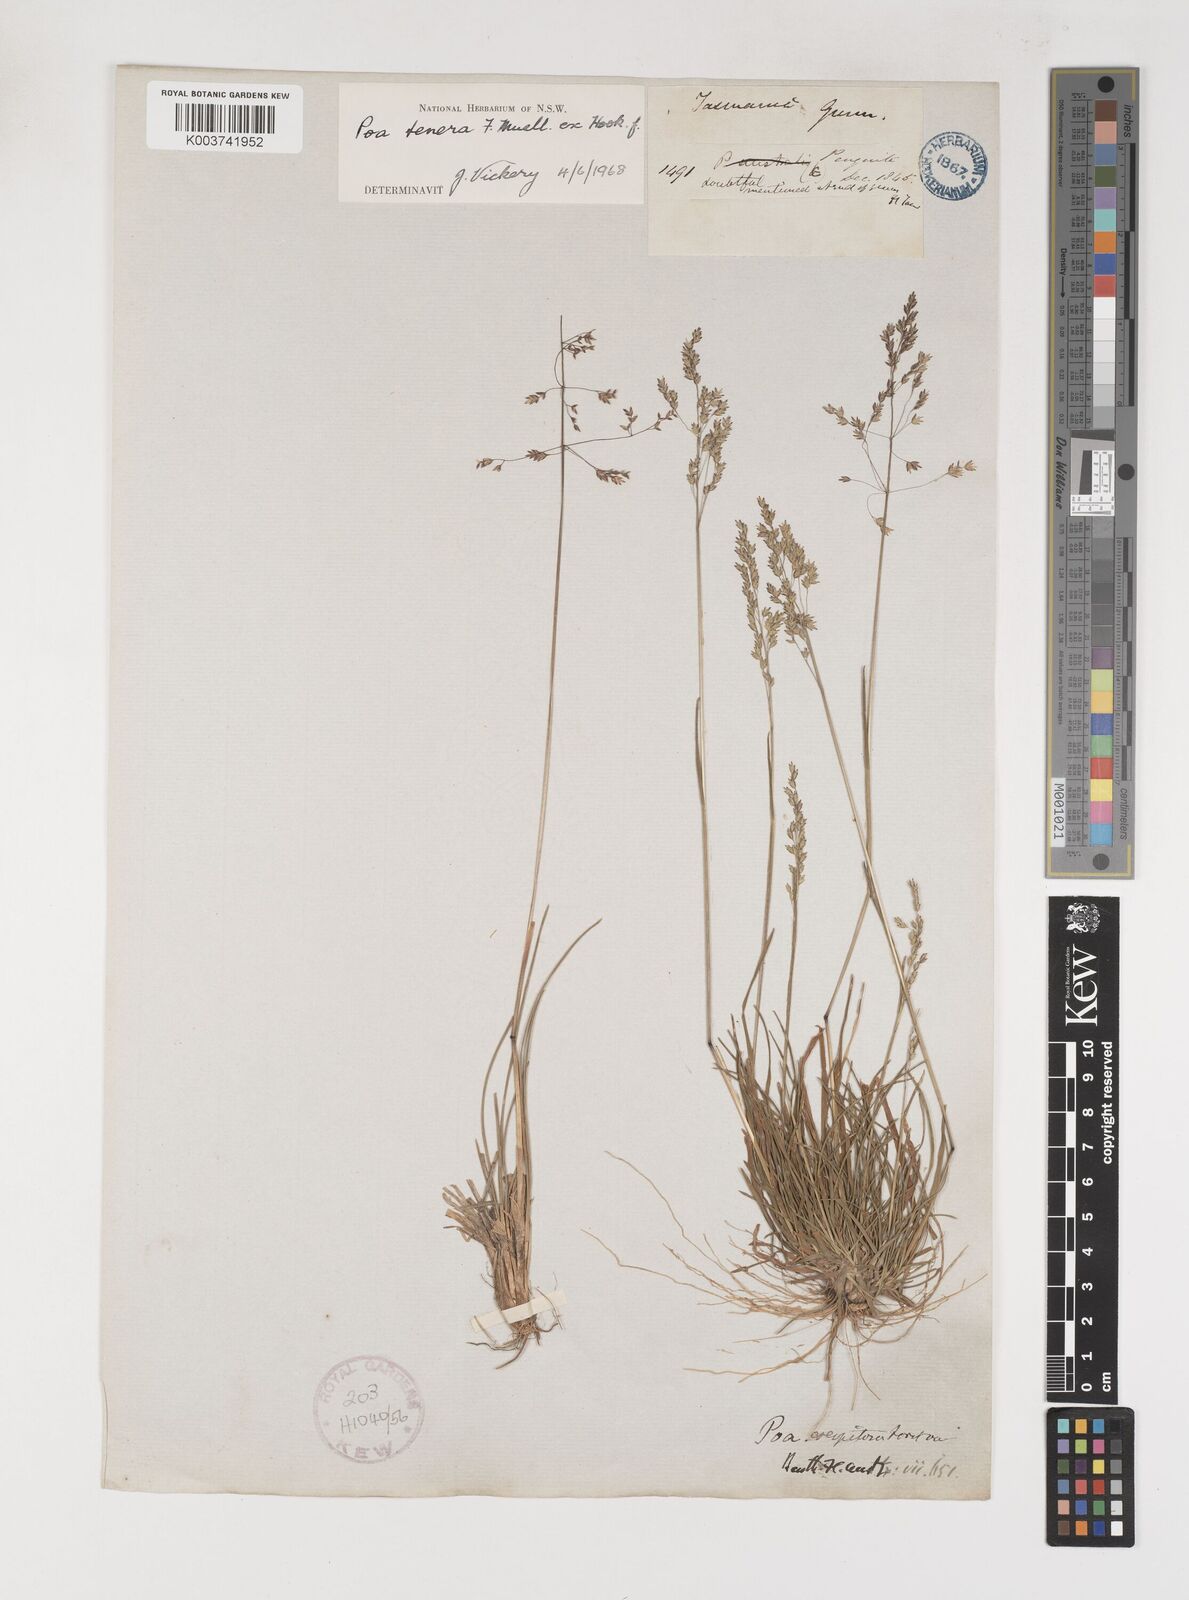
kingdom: Plantae
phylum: Tracheophyta
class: Liliopsida
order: Poales
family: Poaceae
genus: Poa
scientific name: Poa tenera
